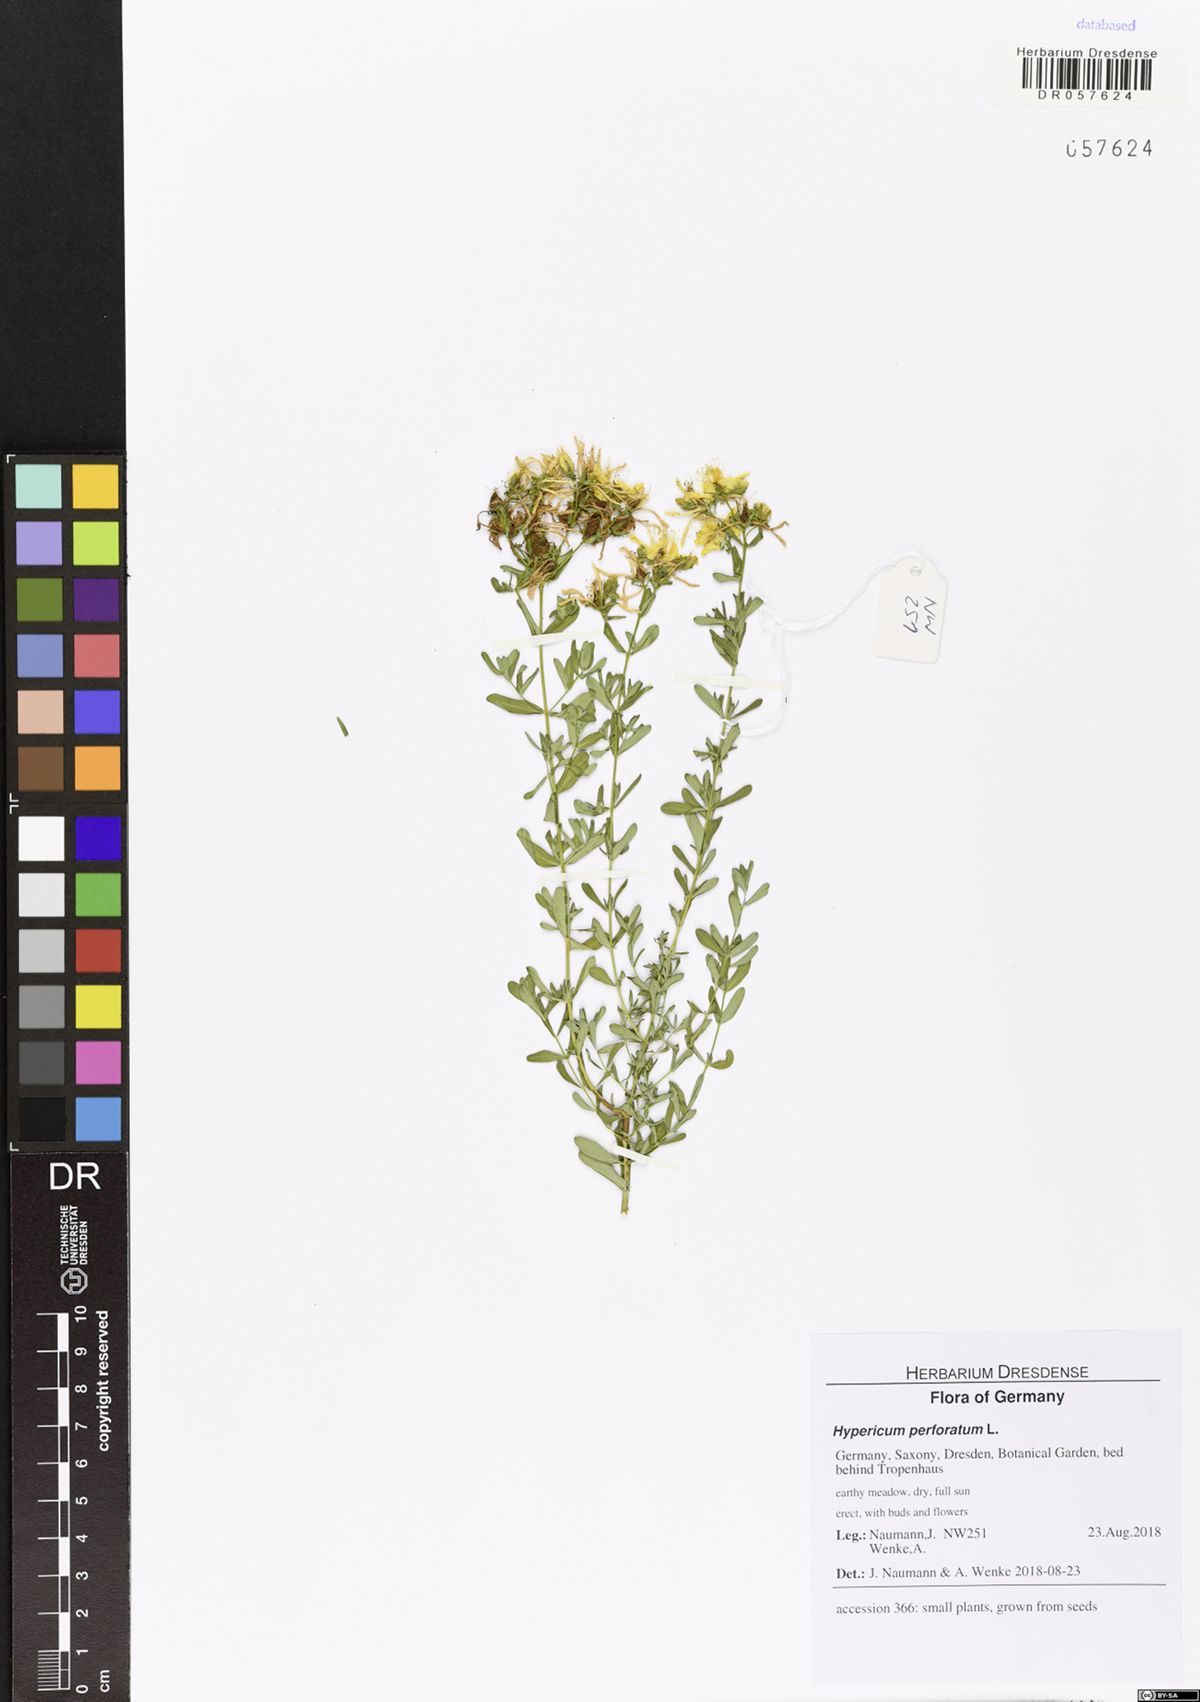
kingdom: Plantae
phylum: Tracheophyta
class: Magnoliopsida
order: Malpighiales
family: Hypericaceae
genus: Hypericum
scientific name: Hypericum perforatum
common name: Common st. johnswort
